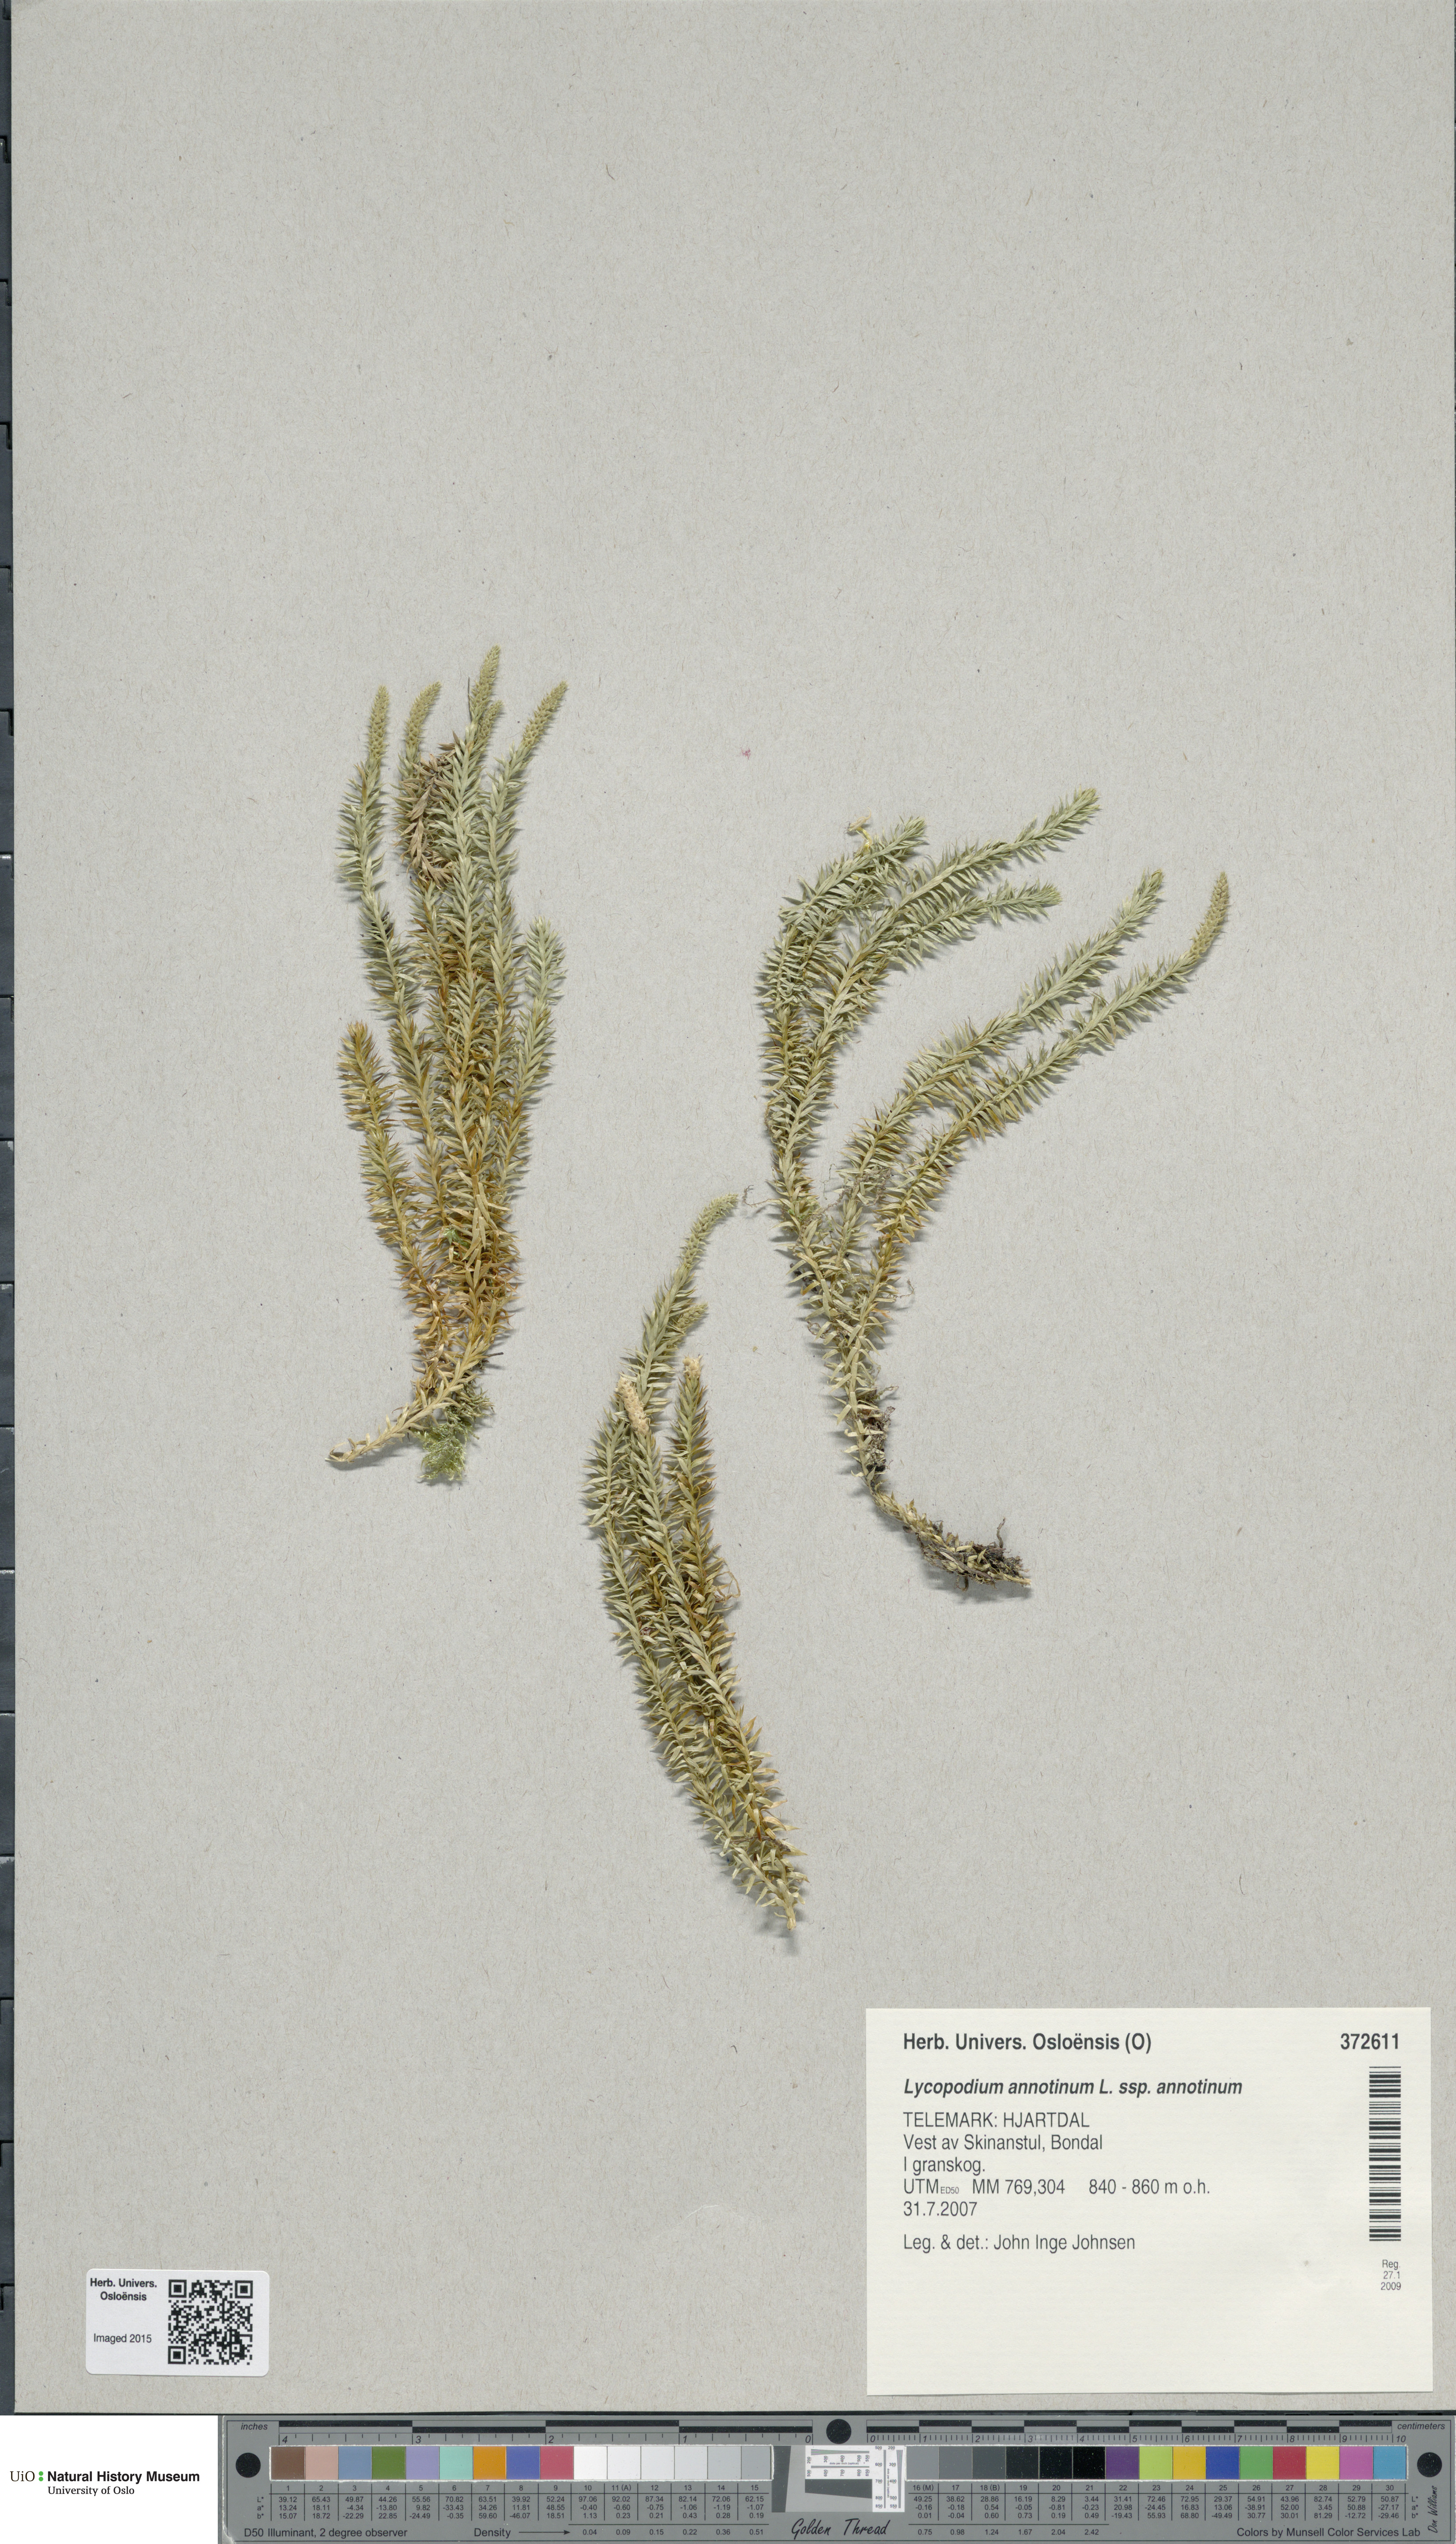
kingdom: Plantae
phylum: Tracheophyta
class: Lycopodiopsida
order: Lycopodiales
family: Lycopodiaceae
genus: Spinulum
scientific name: Spinulum annotinum
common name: Interrupted club-moss
